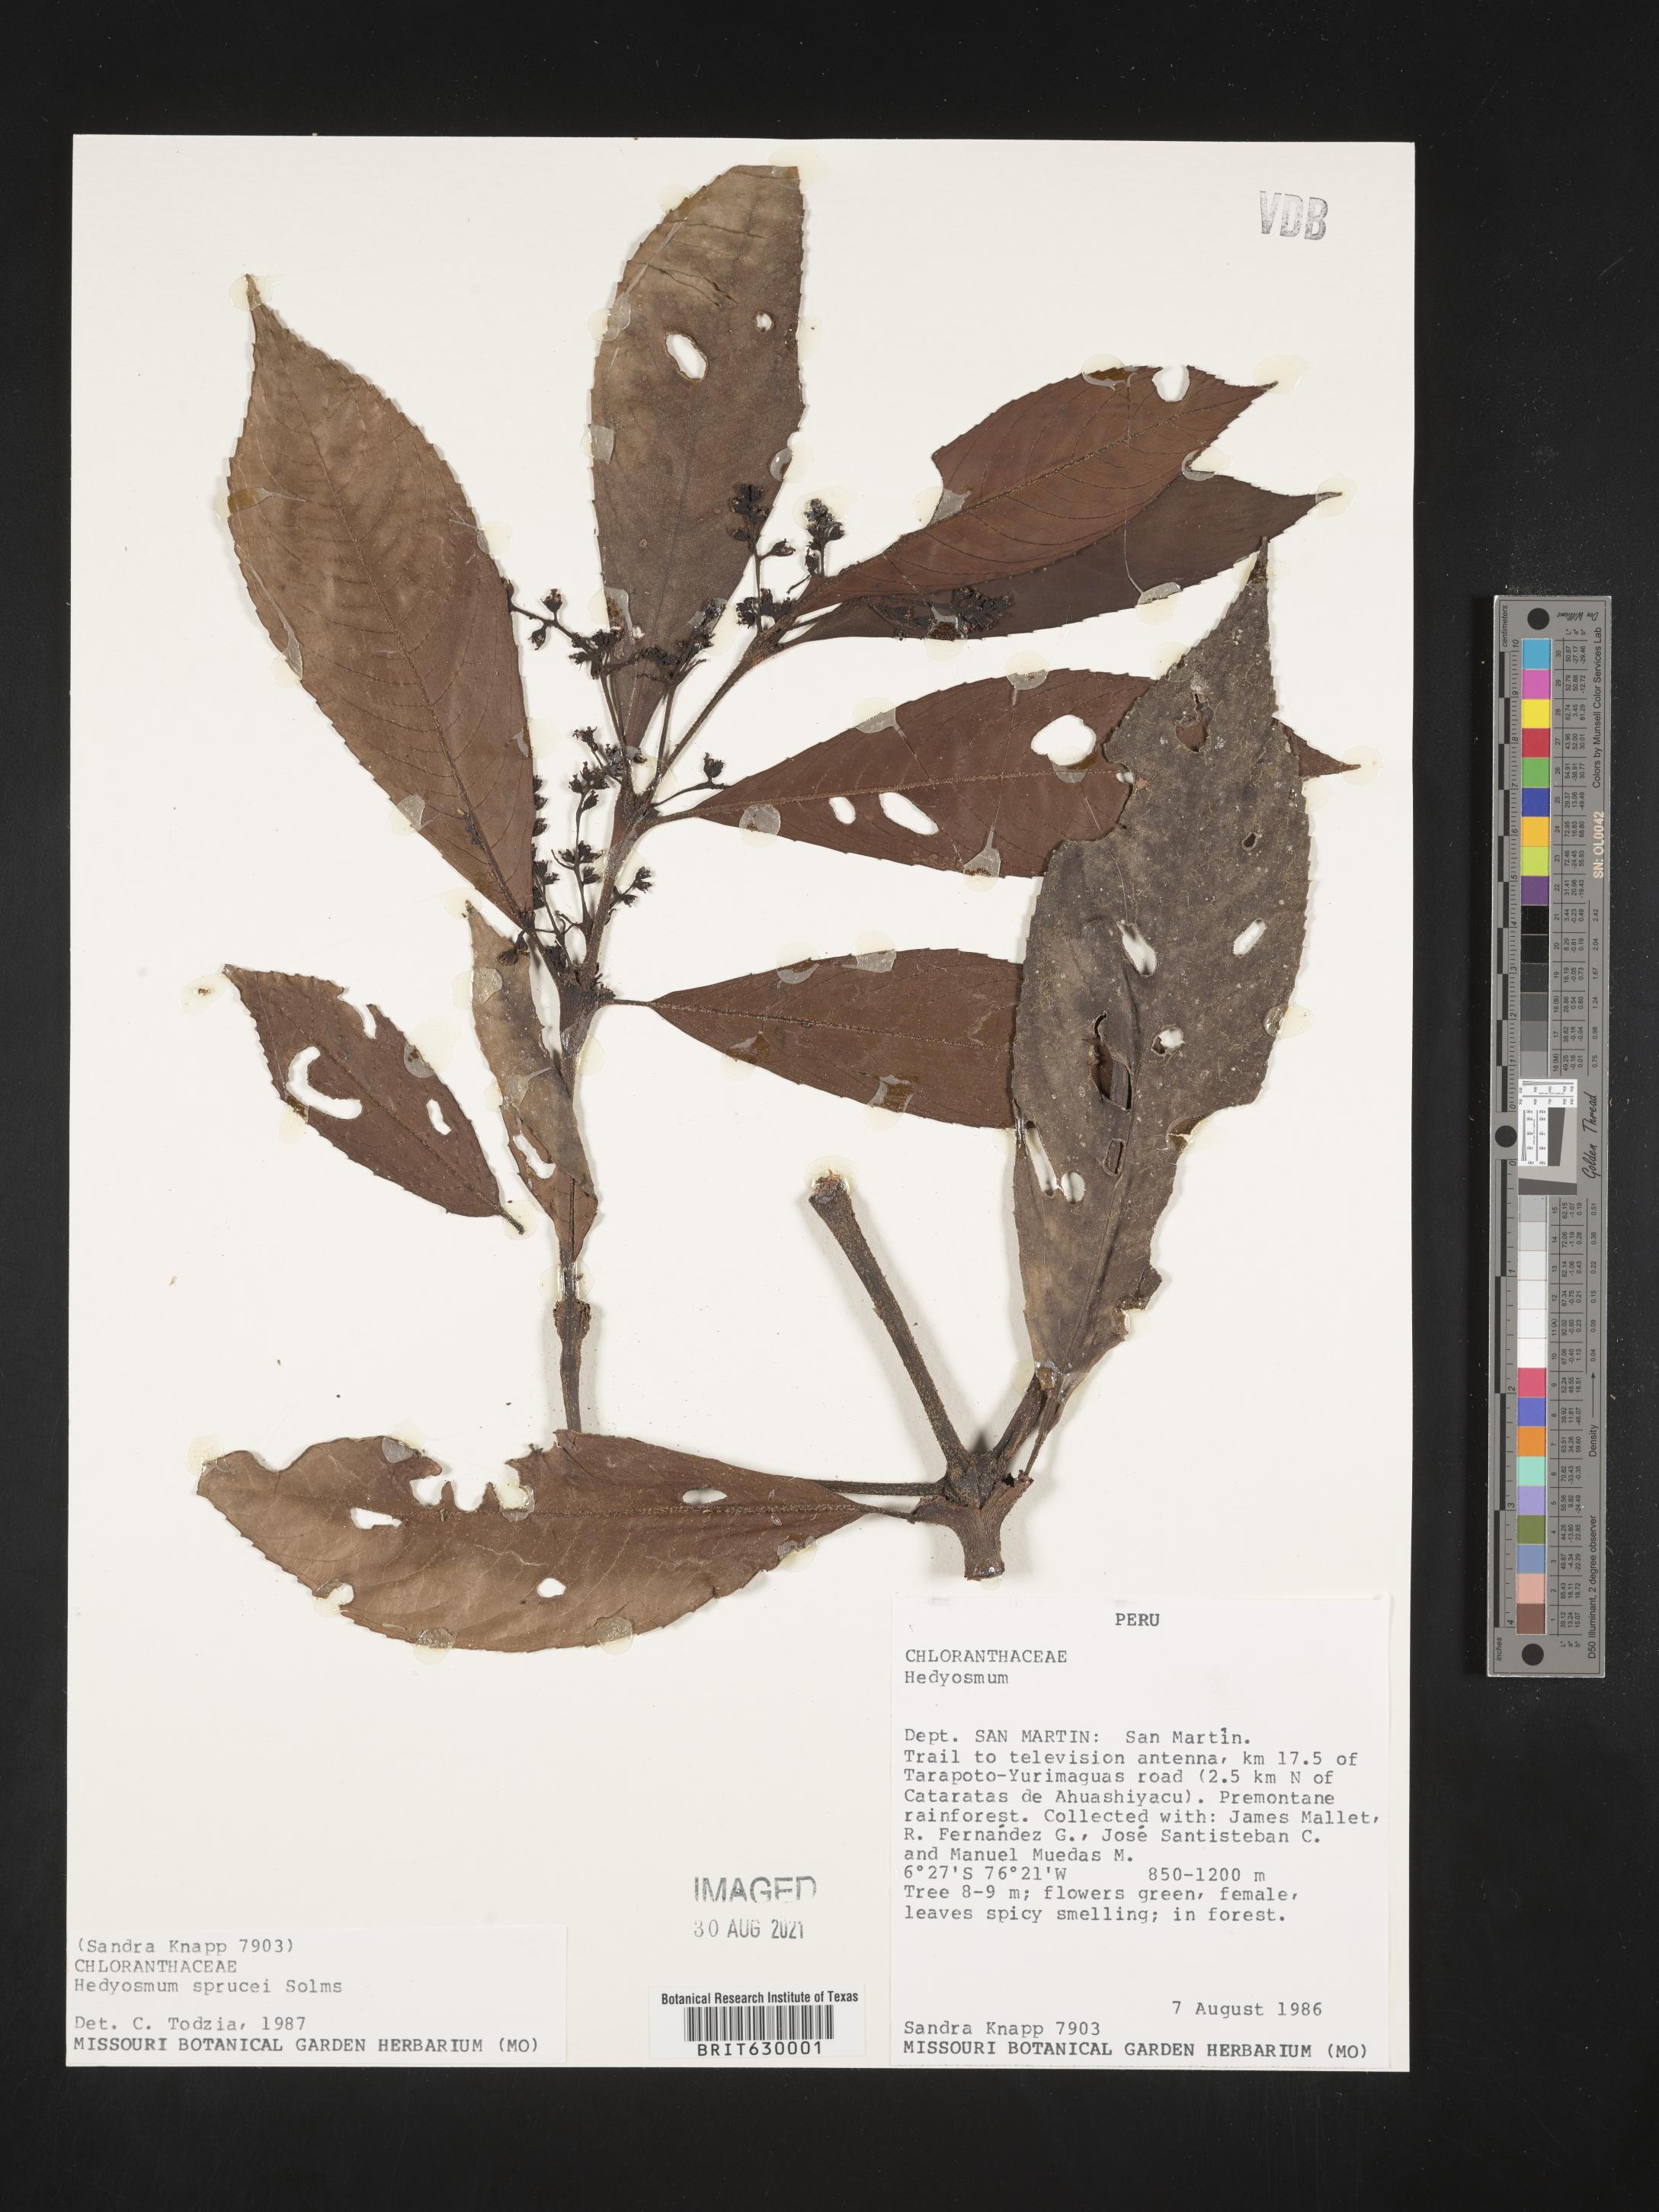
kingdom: Plantae
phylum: Tracheophyta
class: Magnoliopsida
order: Chloranthales
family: Chloranthaceae
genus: Hedyosmum
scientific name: Hedyosmum sprucei
